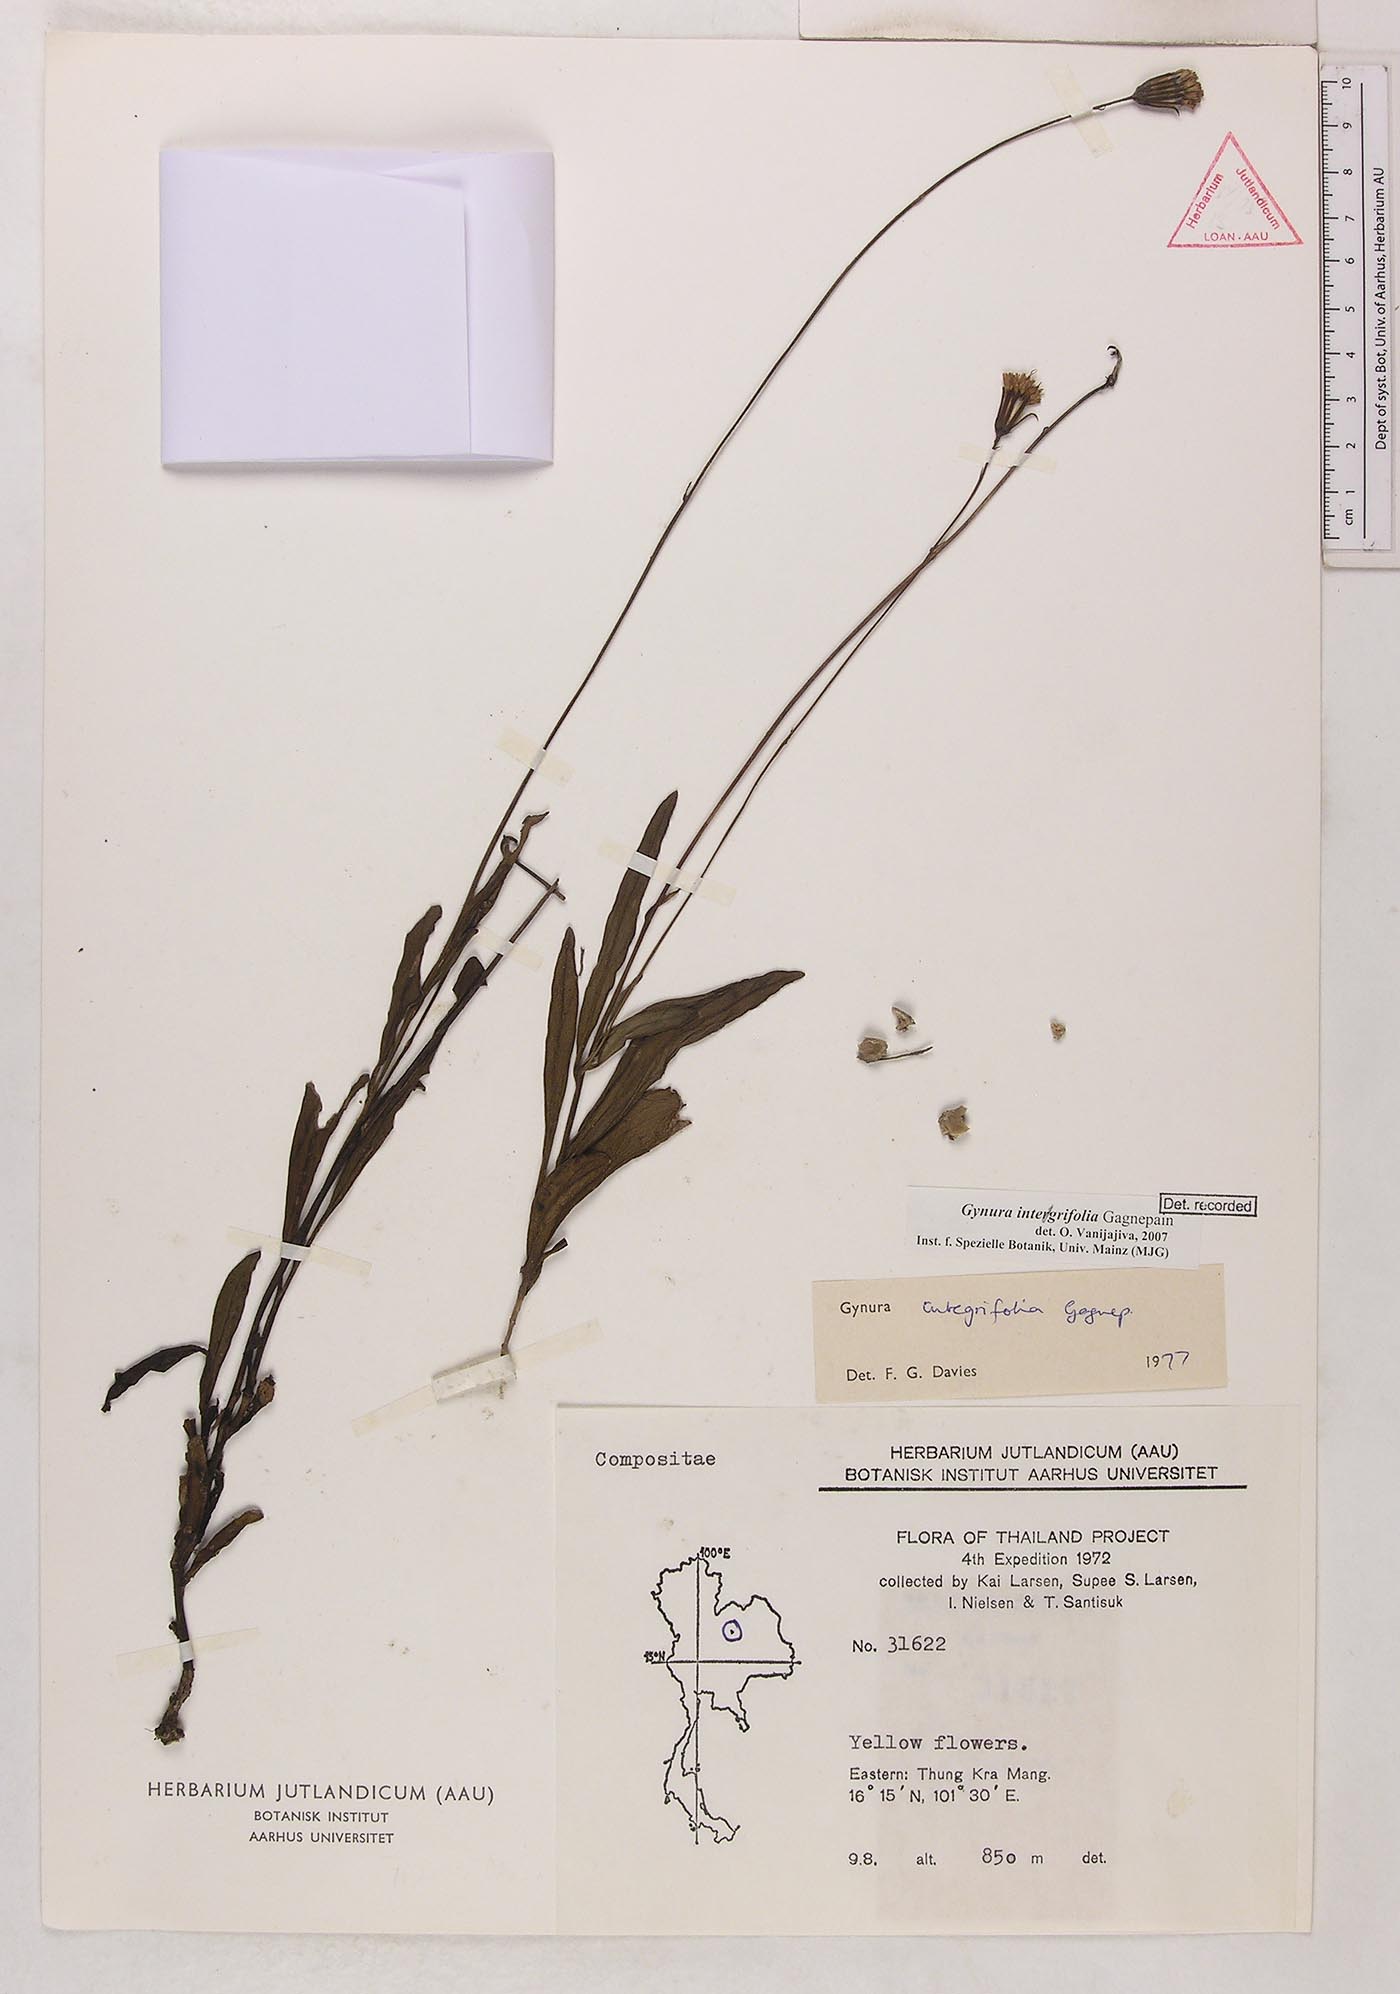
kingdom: Plantae
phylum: Tracheophyta
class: Magnoliopsida
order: Asterales
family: Asteraceae
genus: Gynura
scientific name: Gynura integrifolia
